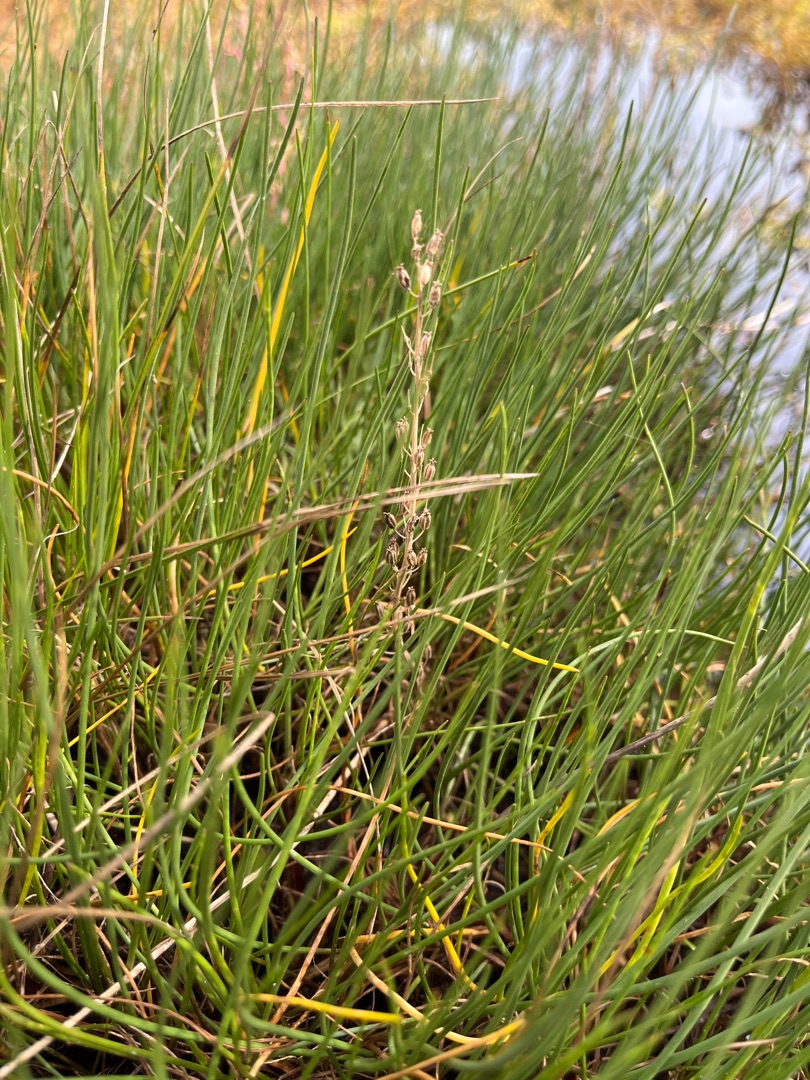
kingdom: Plantae
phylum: Tracheophyta
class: Liliopsida
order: Alismatales
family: Juncaginaceae
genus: Triglochin
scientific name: Triglochin maritima
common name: Strand-trehage
